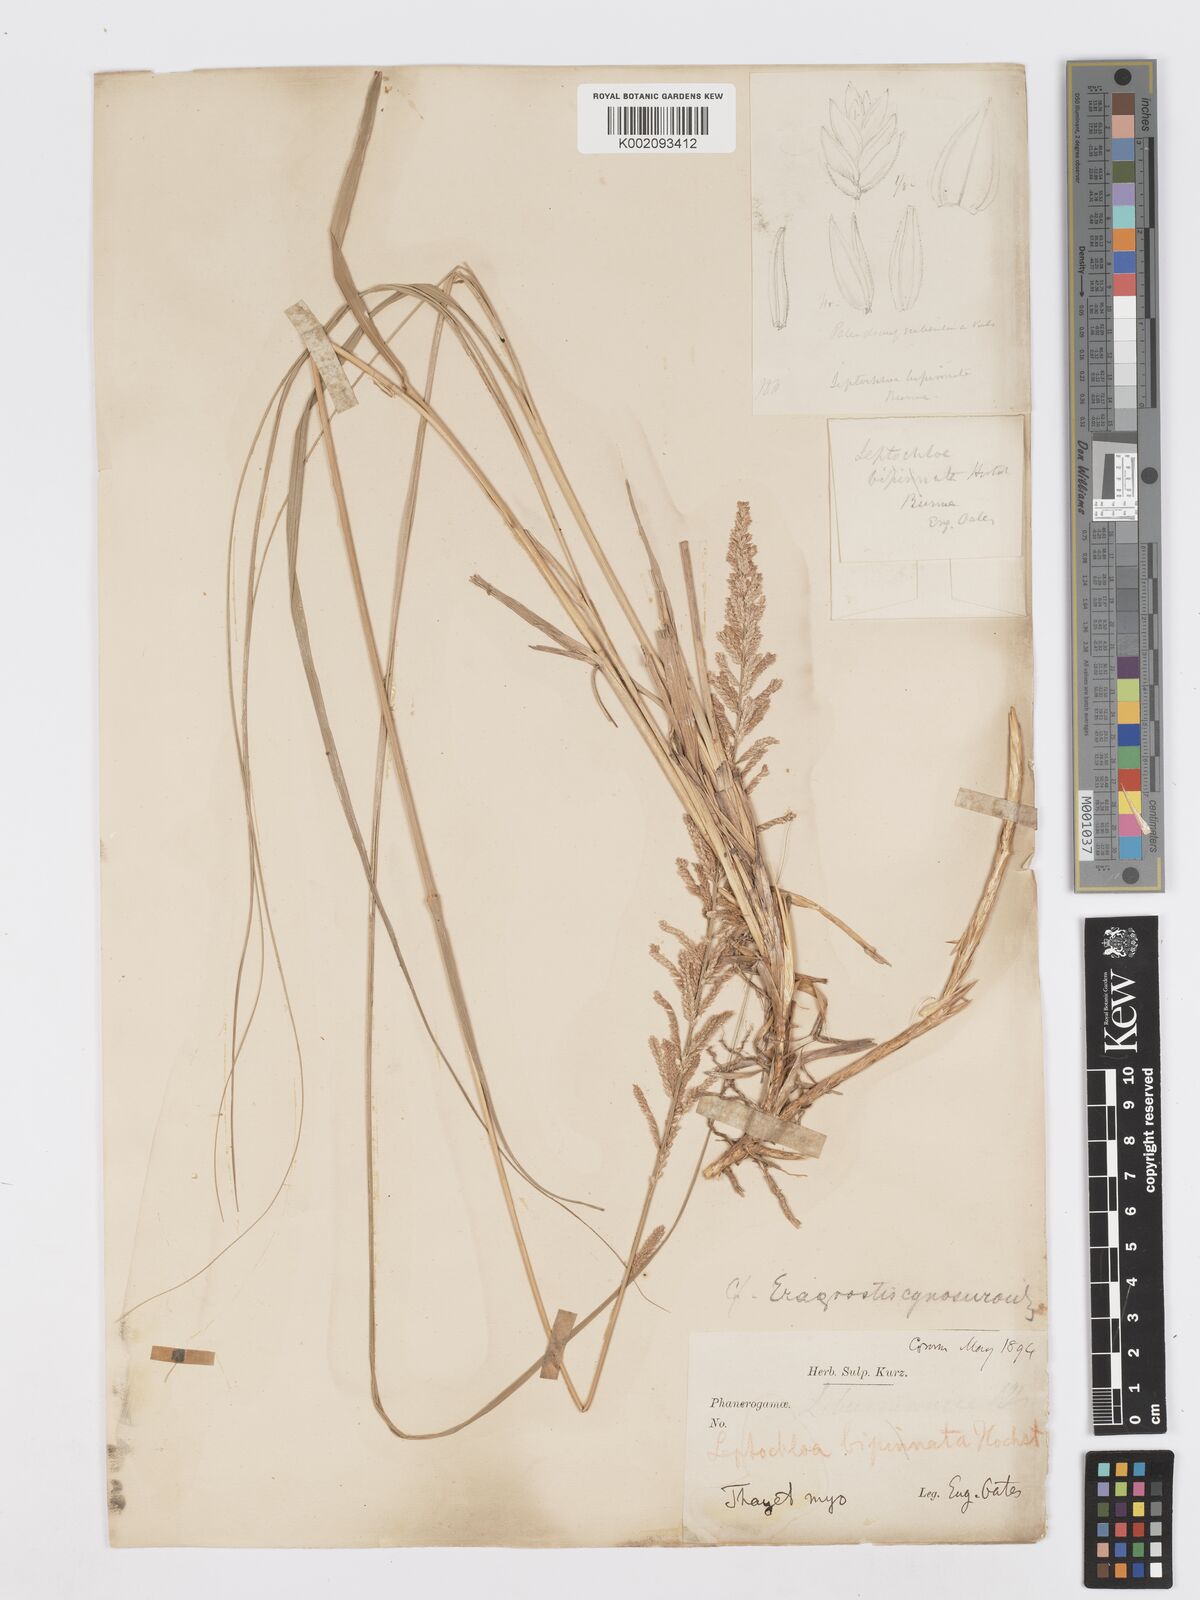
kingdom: Plantae
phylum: Tracheophyta
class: Liliopsida
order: Poales
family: Poaceae
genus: Desmostachya
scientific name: Desmostachya bipinnata
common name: Crowfoot grass
